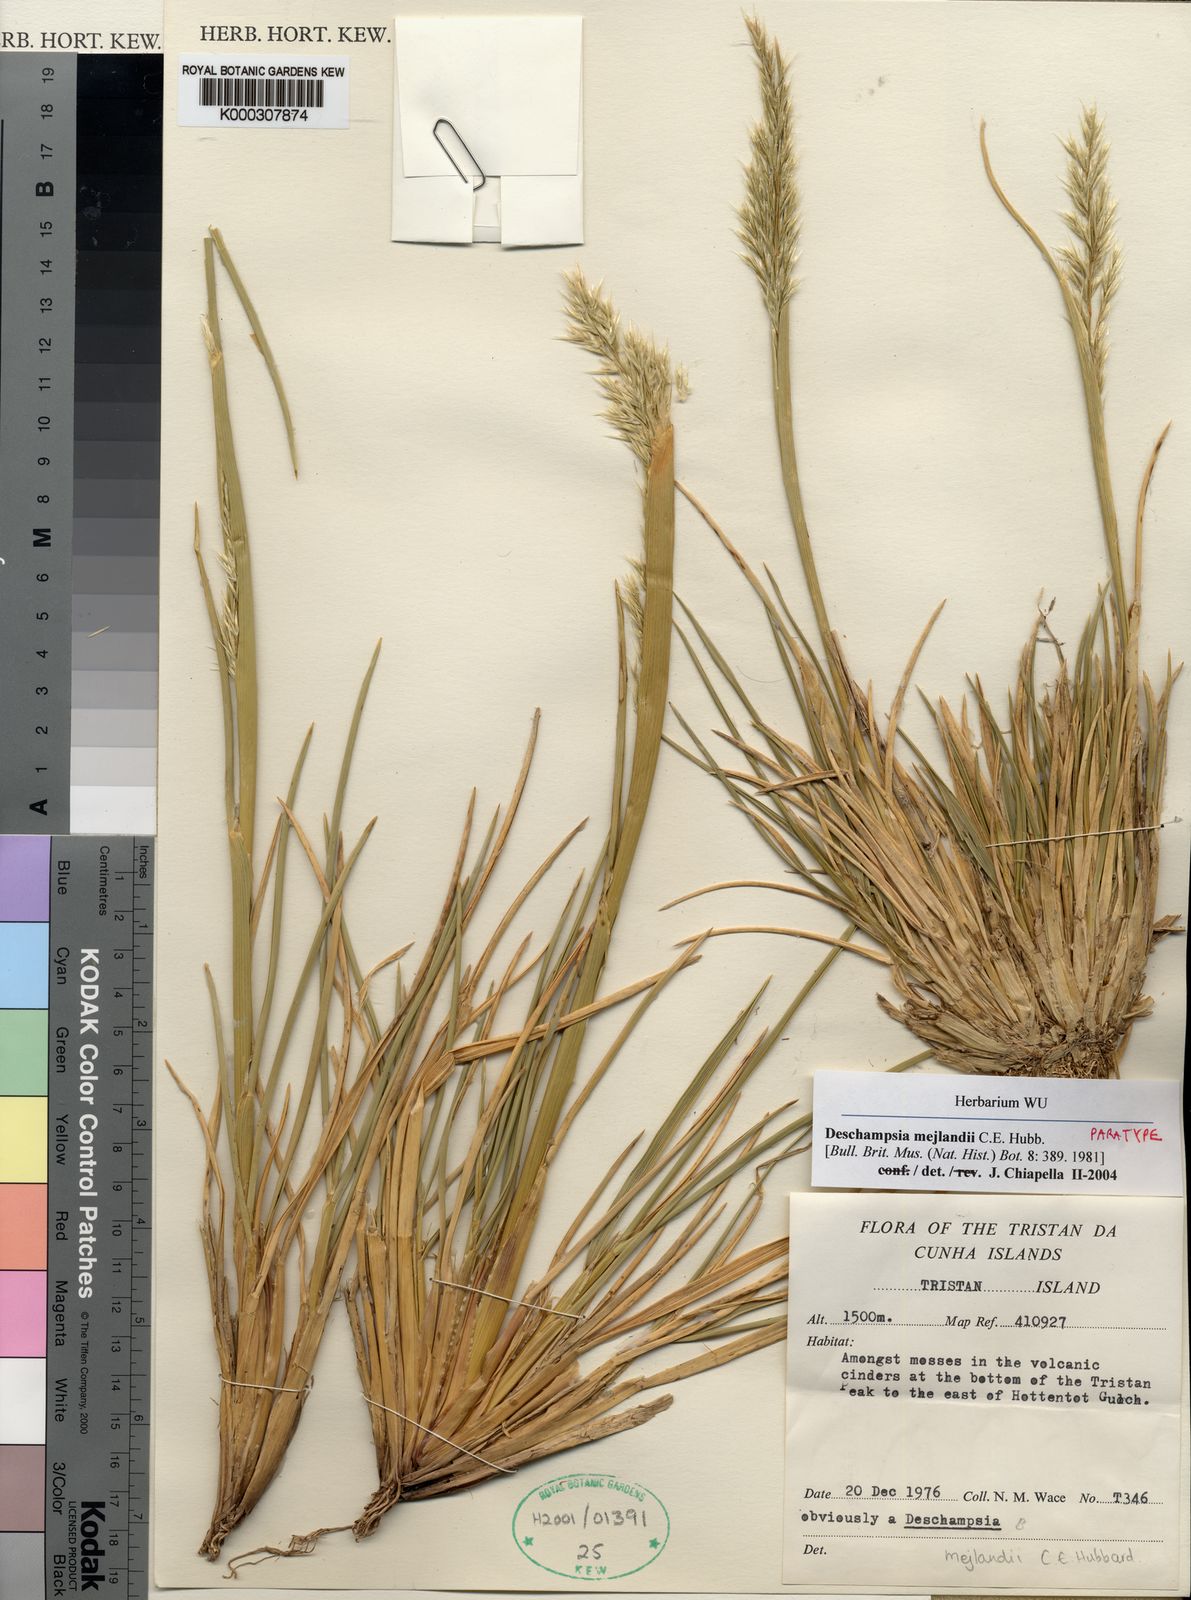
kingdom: Plantae
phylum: Tracheophyta
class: Liliopsida
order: Poales
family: Poaceae
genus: Deschampsia
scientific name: Deschampsia mejlandii
